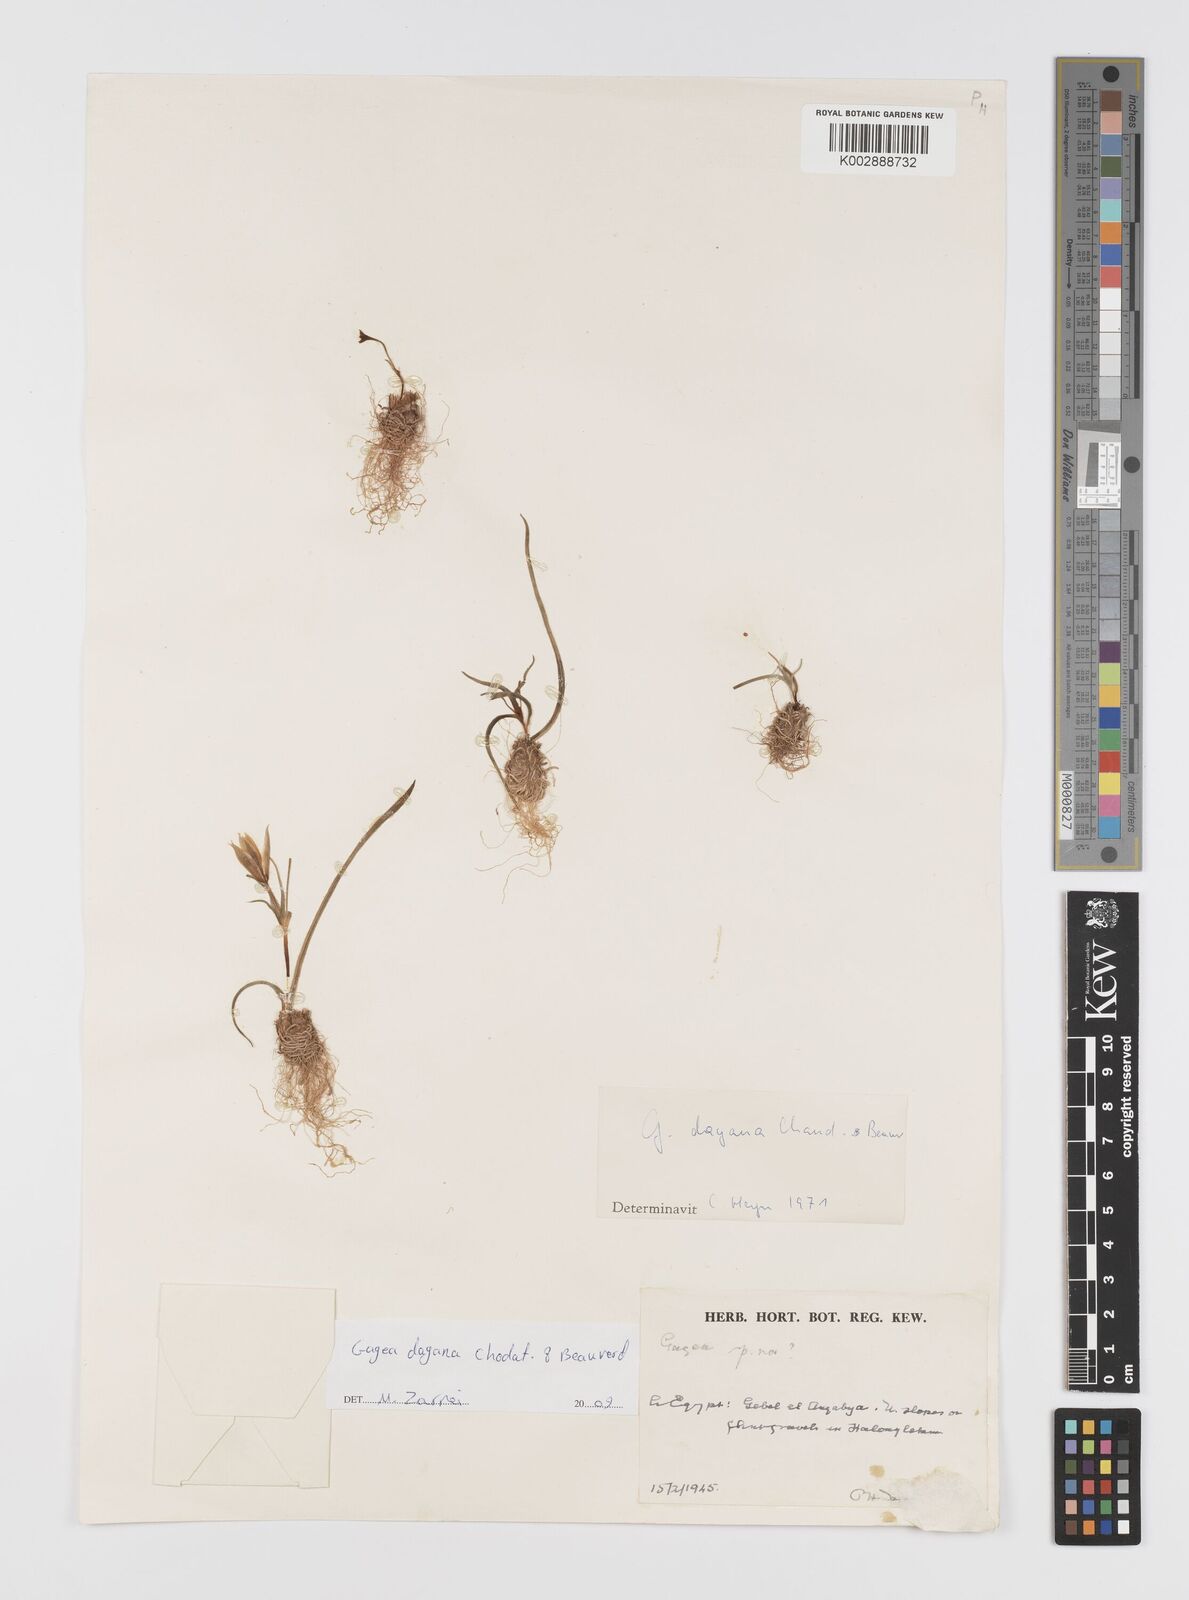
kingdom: Plantae
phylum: Tracheophyta
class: Liliopsida
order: Liliales
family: Liliaceae
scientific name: Liliaceae
